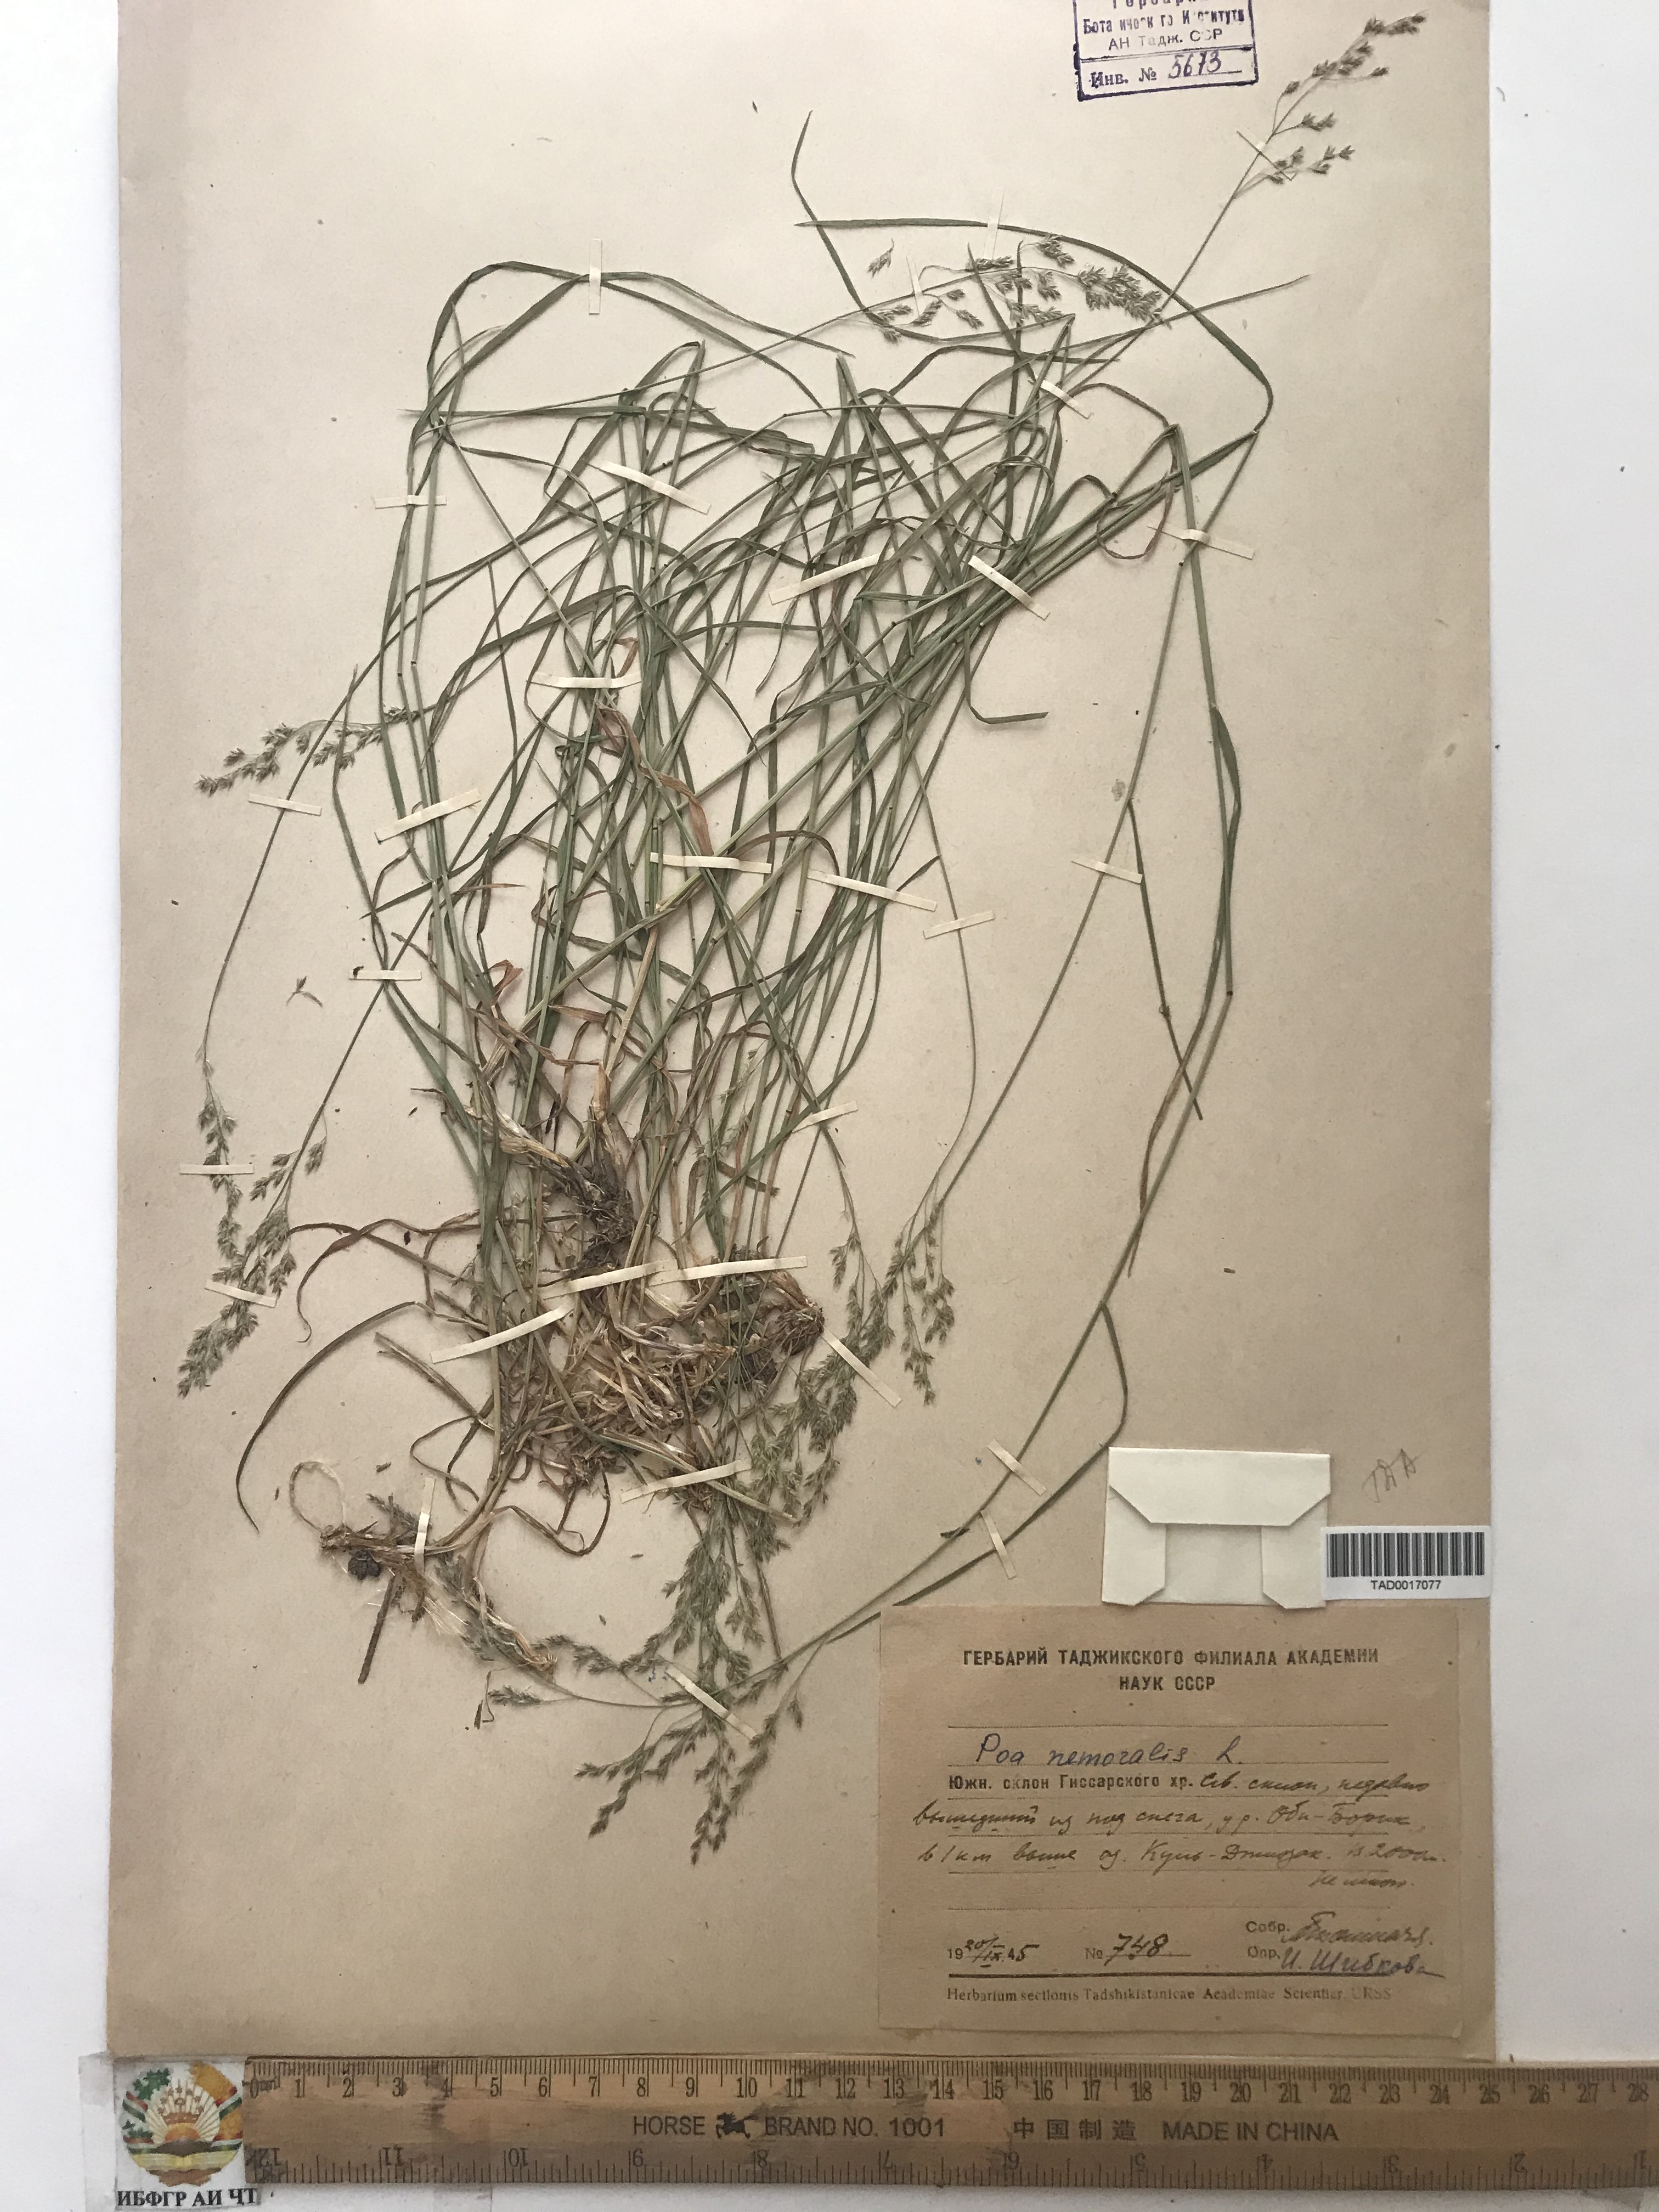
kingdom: Plantae
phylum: Tracheophyta
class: Liliopsida
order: Poales
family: Poaceae
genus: Poa
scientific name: Poa nemoralis
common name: Wood bluegrass
